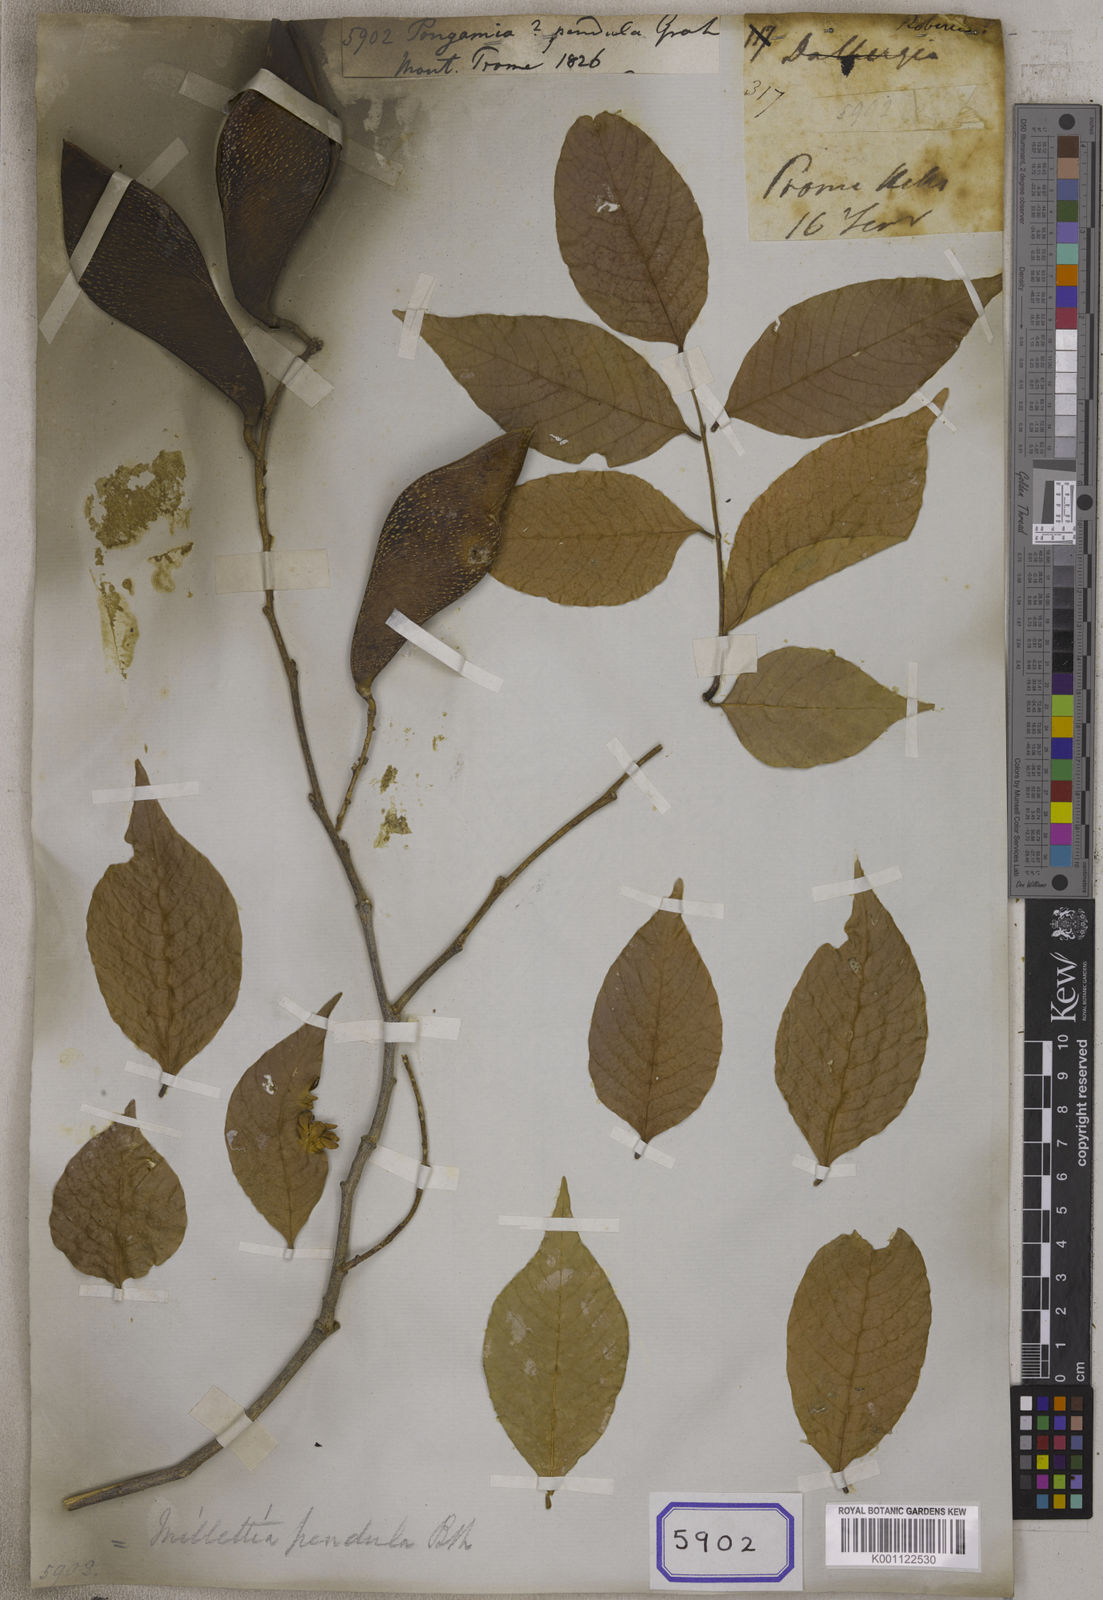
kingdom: Plantae
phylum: Tracheophyta
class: Magnoliopsida
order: Fabales
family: Fabaceae
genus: Imbralyx
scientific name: Imbralyx leucanthus
